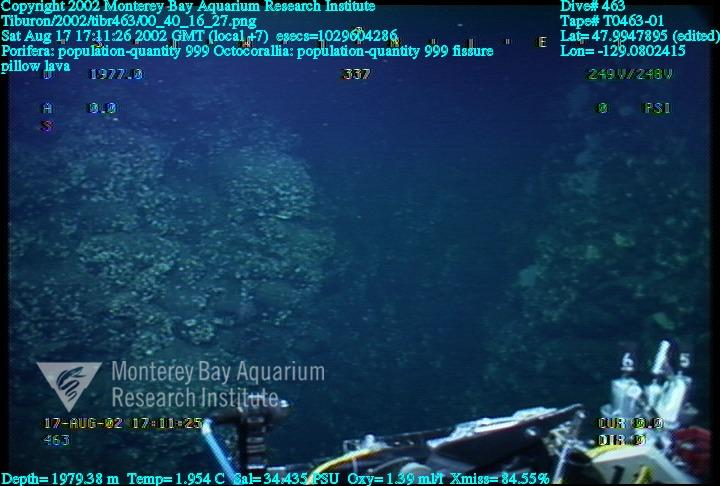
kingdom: Animalia
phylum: Porifera
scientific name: Porifera
